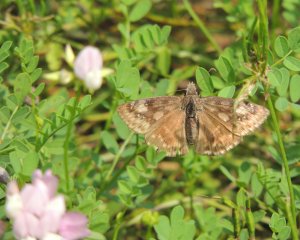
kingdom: Animalia
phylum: Arthropoda
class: Insecta
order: Lepidoptera
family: Hesperiidae
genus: Gesta
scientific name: Gesta
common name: Wild Indigo Duskywing
